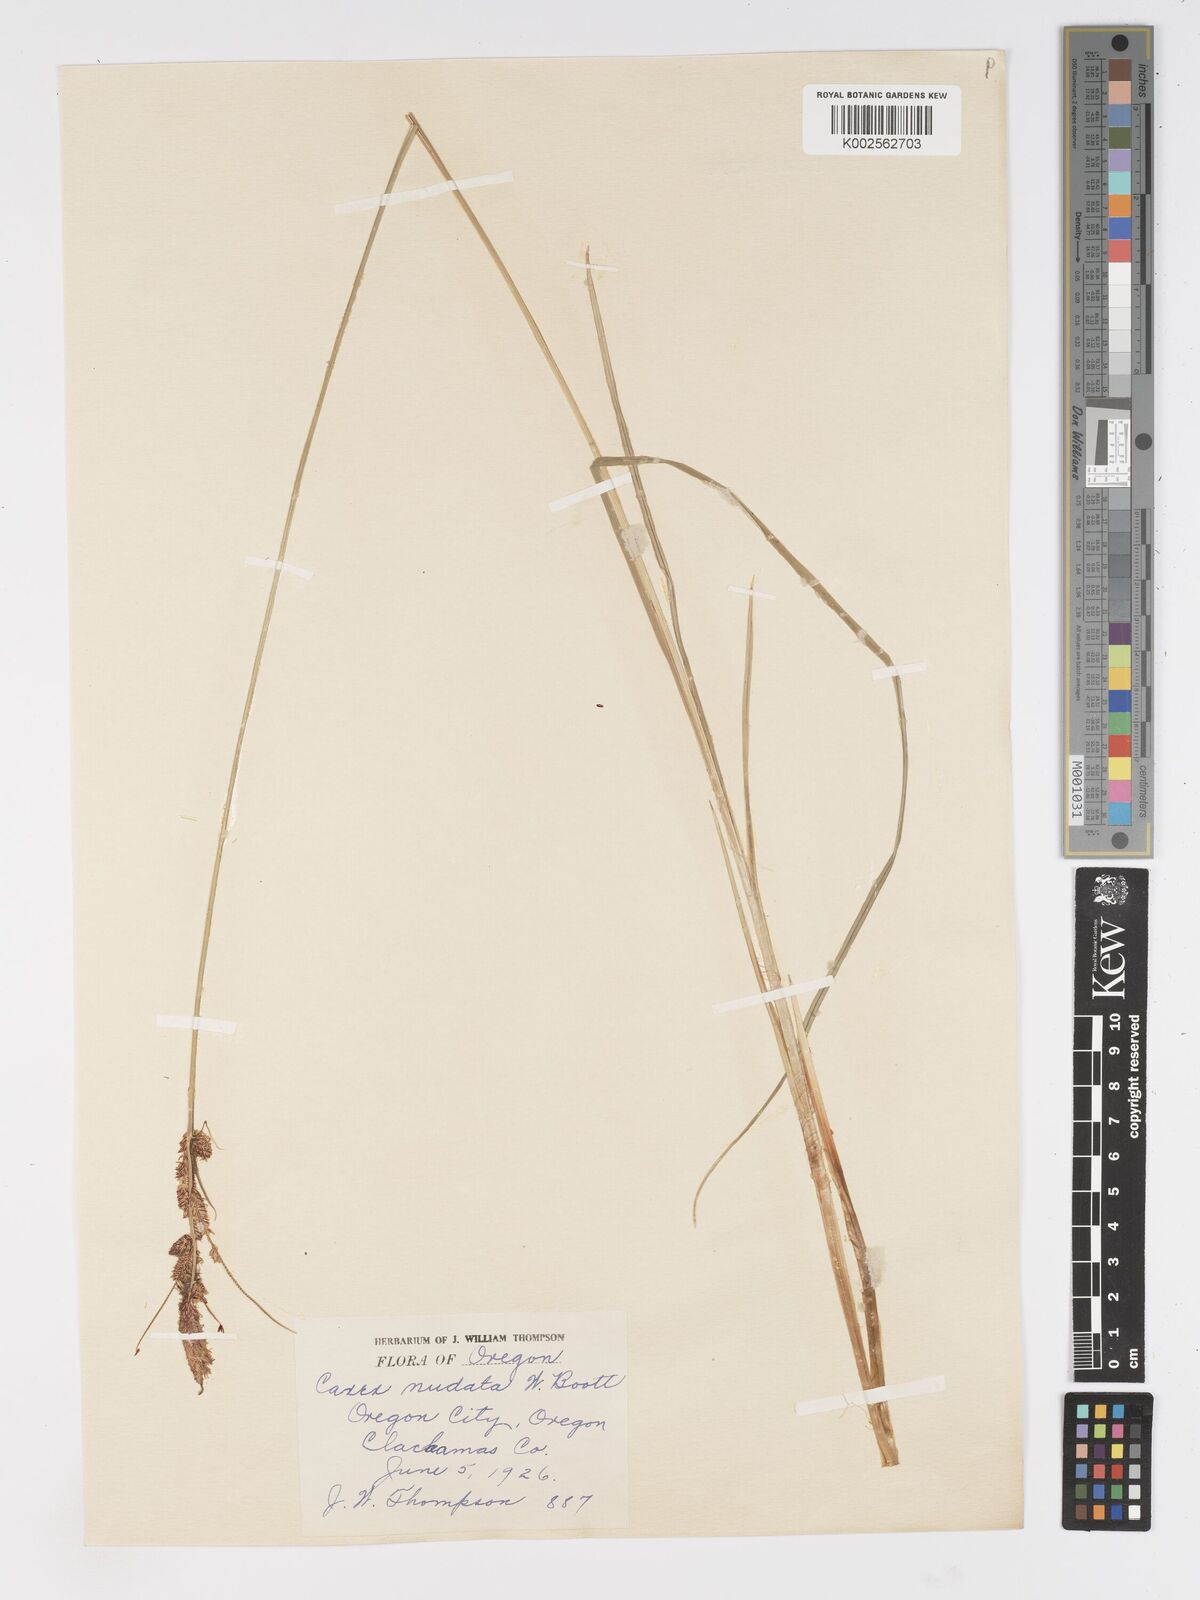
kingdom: Plantae
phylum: Tracheophyta
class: Liliopsida
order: Poales
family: Cyperaceae
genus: Carex
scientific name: Carex nudata
